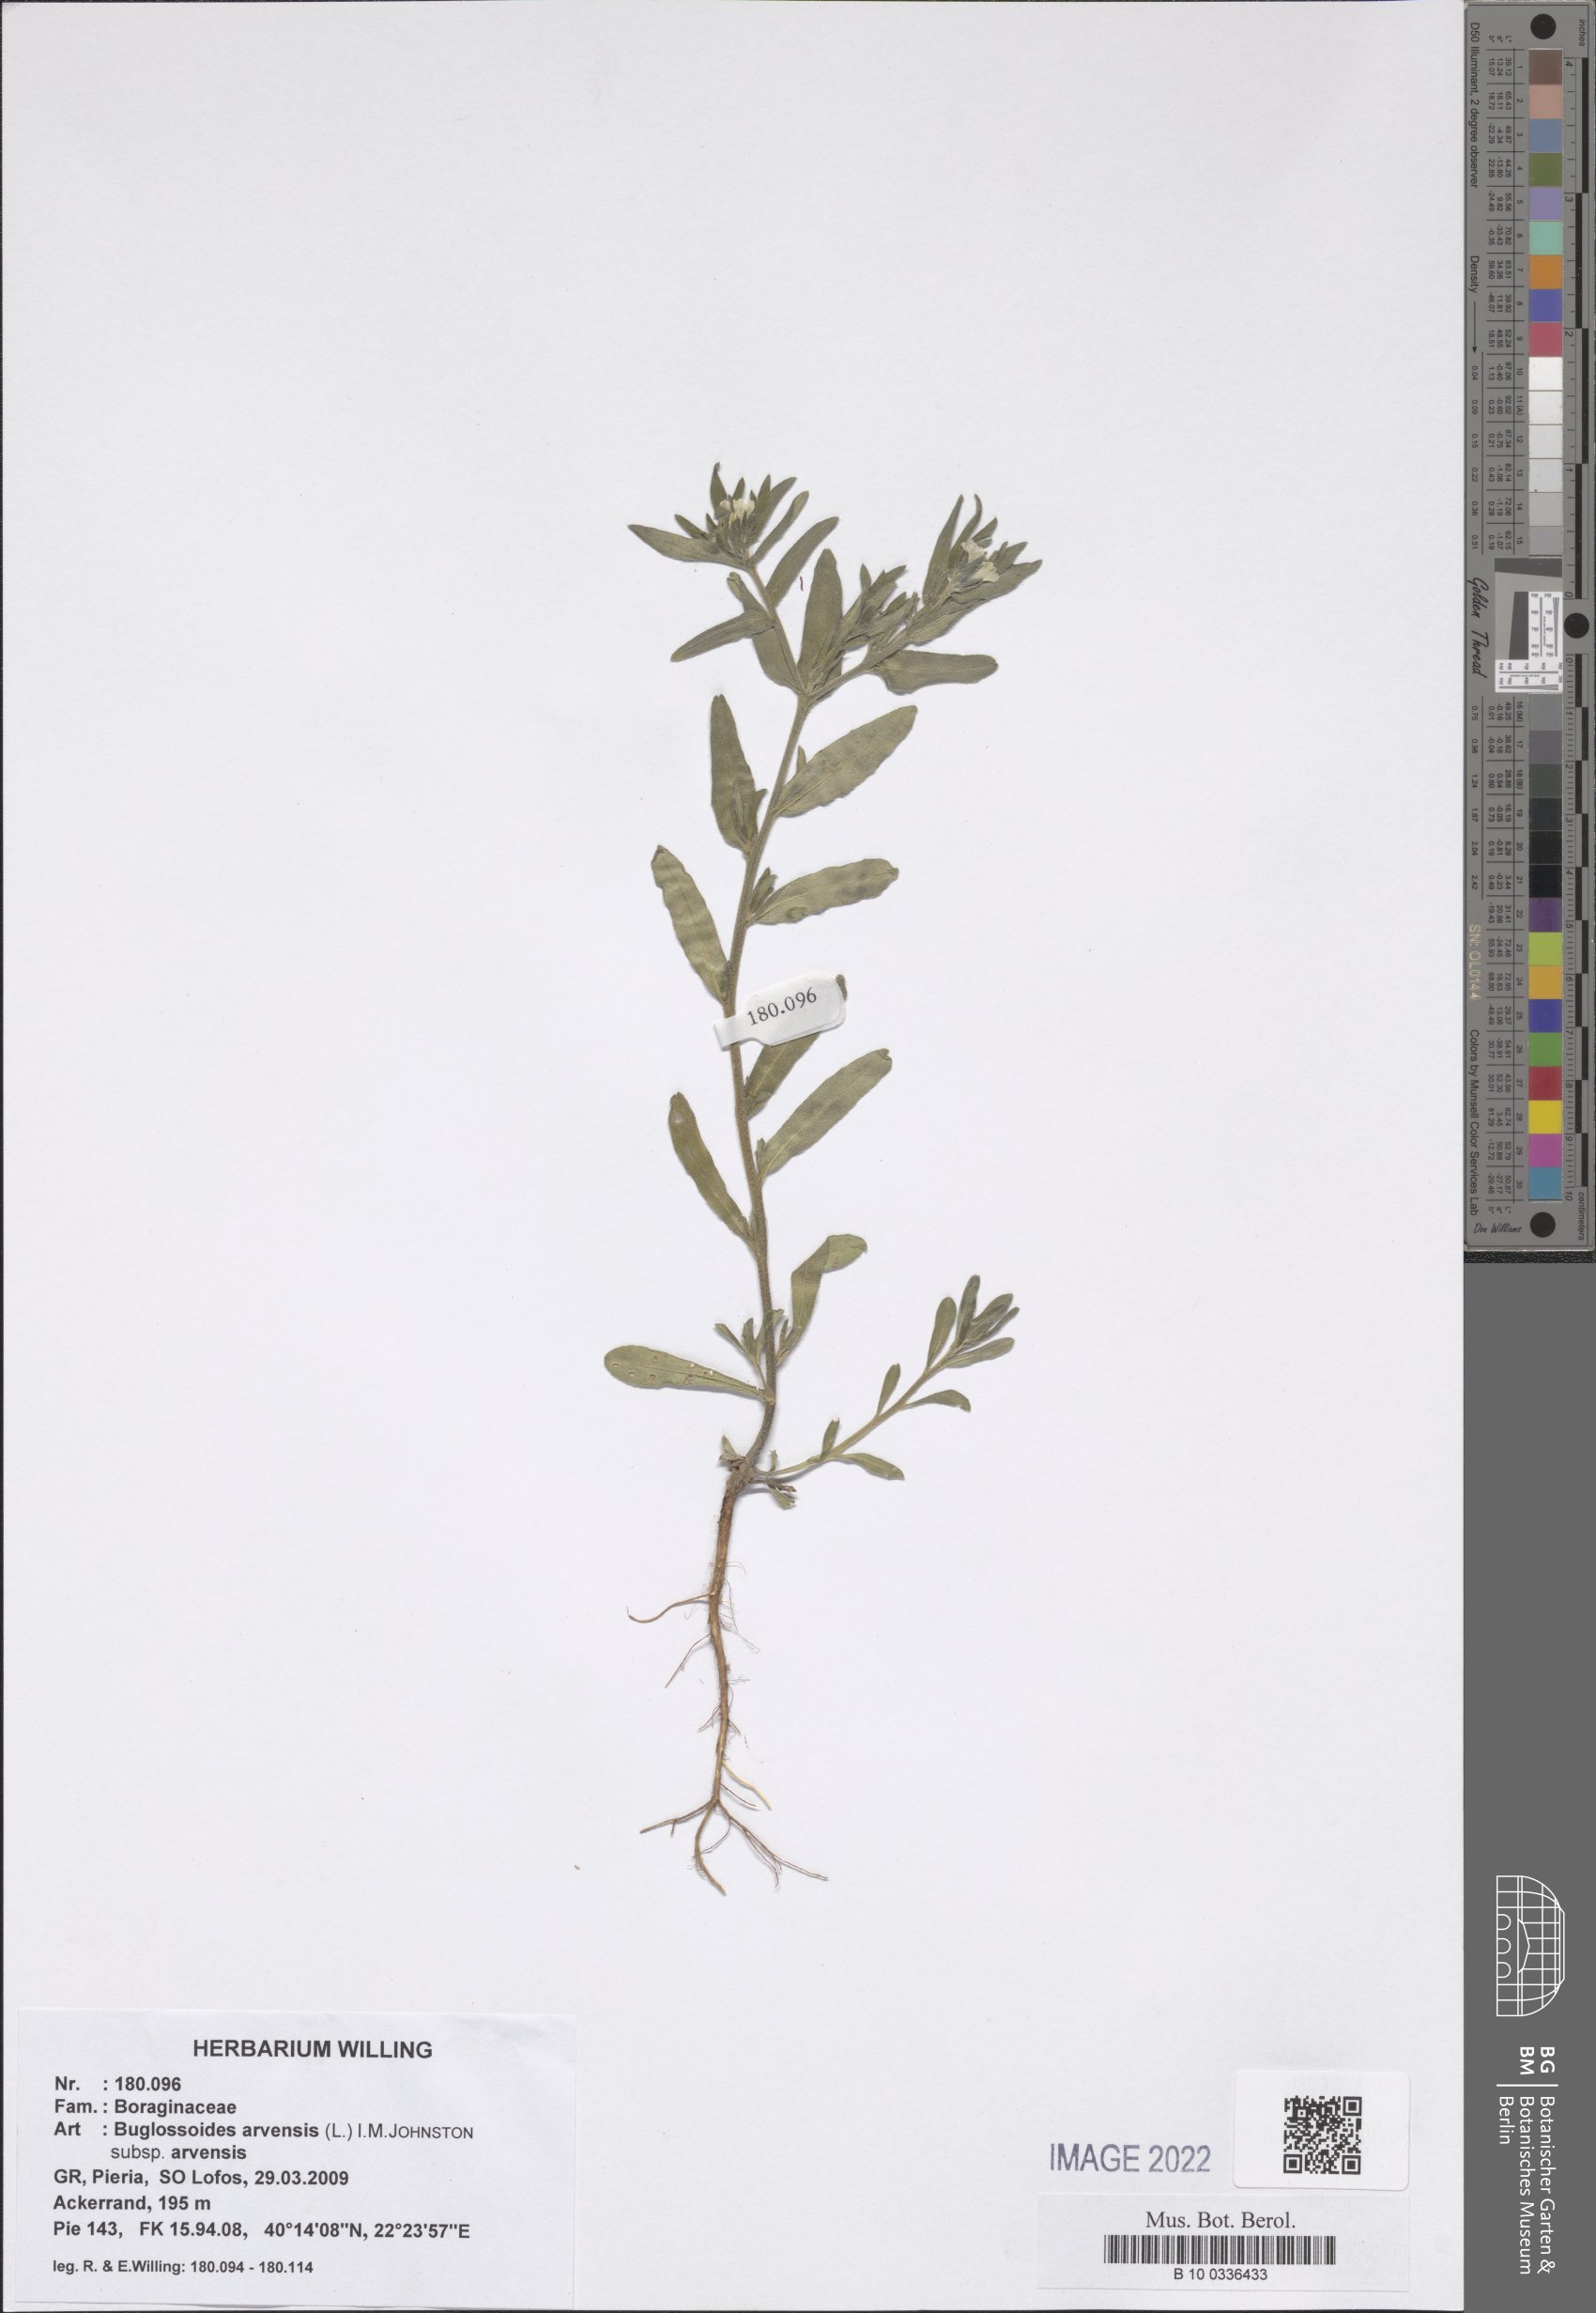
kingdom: Plantae
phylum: Tracheophyta
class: Magnoliopsida
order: Boraginales
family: Boraginaceae
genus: Buglossoides
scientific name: Buglossoides arvensis
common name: Corn gromwell
